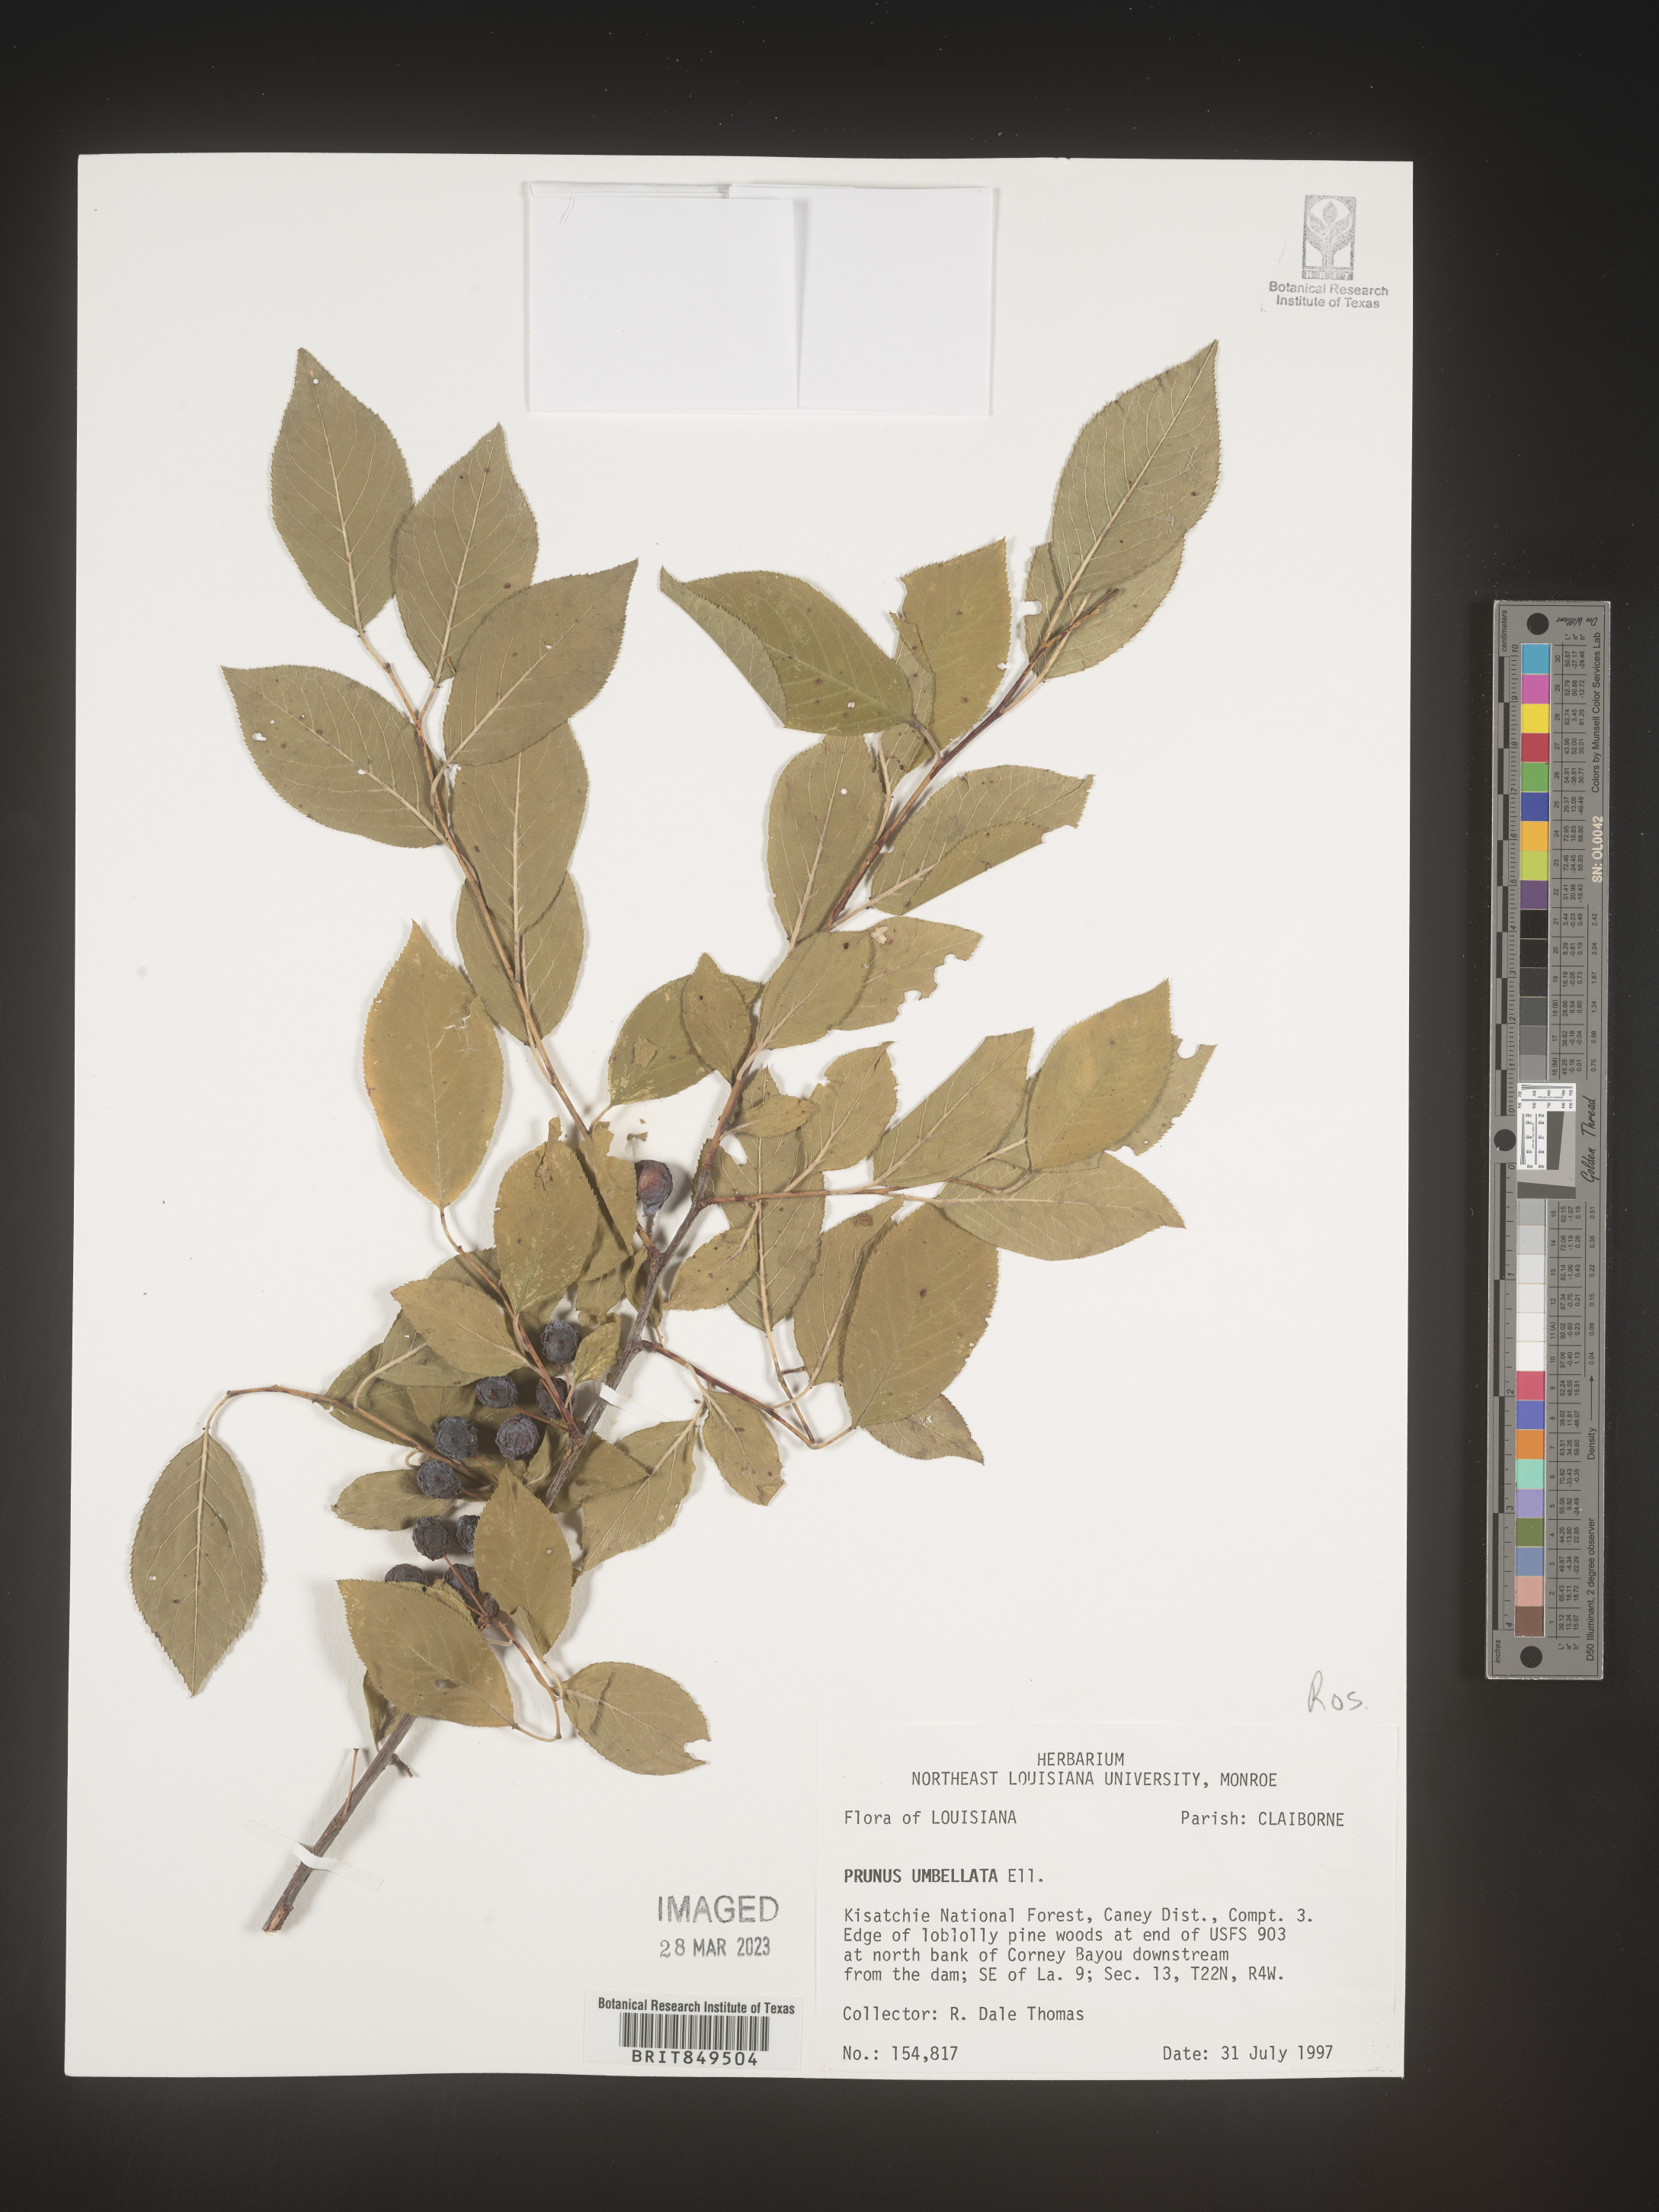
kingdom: Plantae
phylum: Tracheophyta
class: Magnoliopsida
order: Rosales
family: Rosaceae
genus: Prunus
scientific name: Prunus umbellata
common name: Allegheny plum
